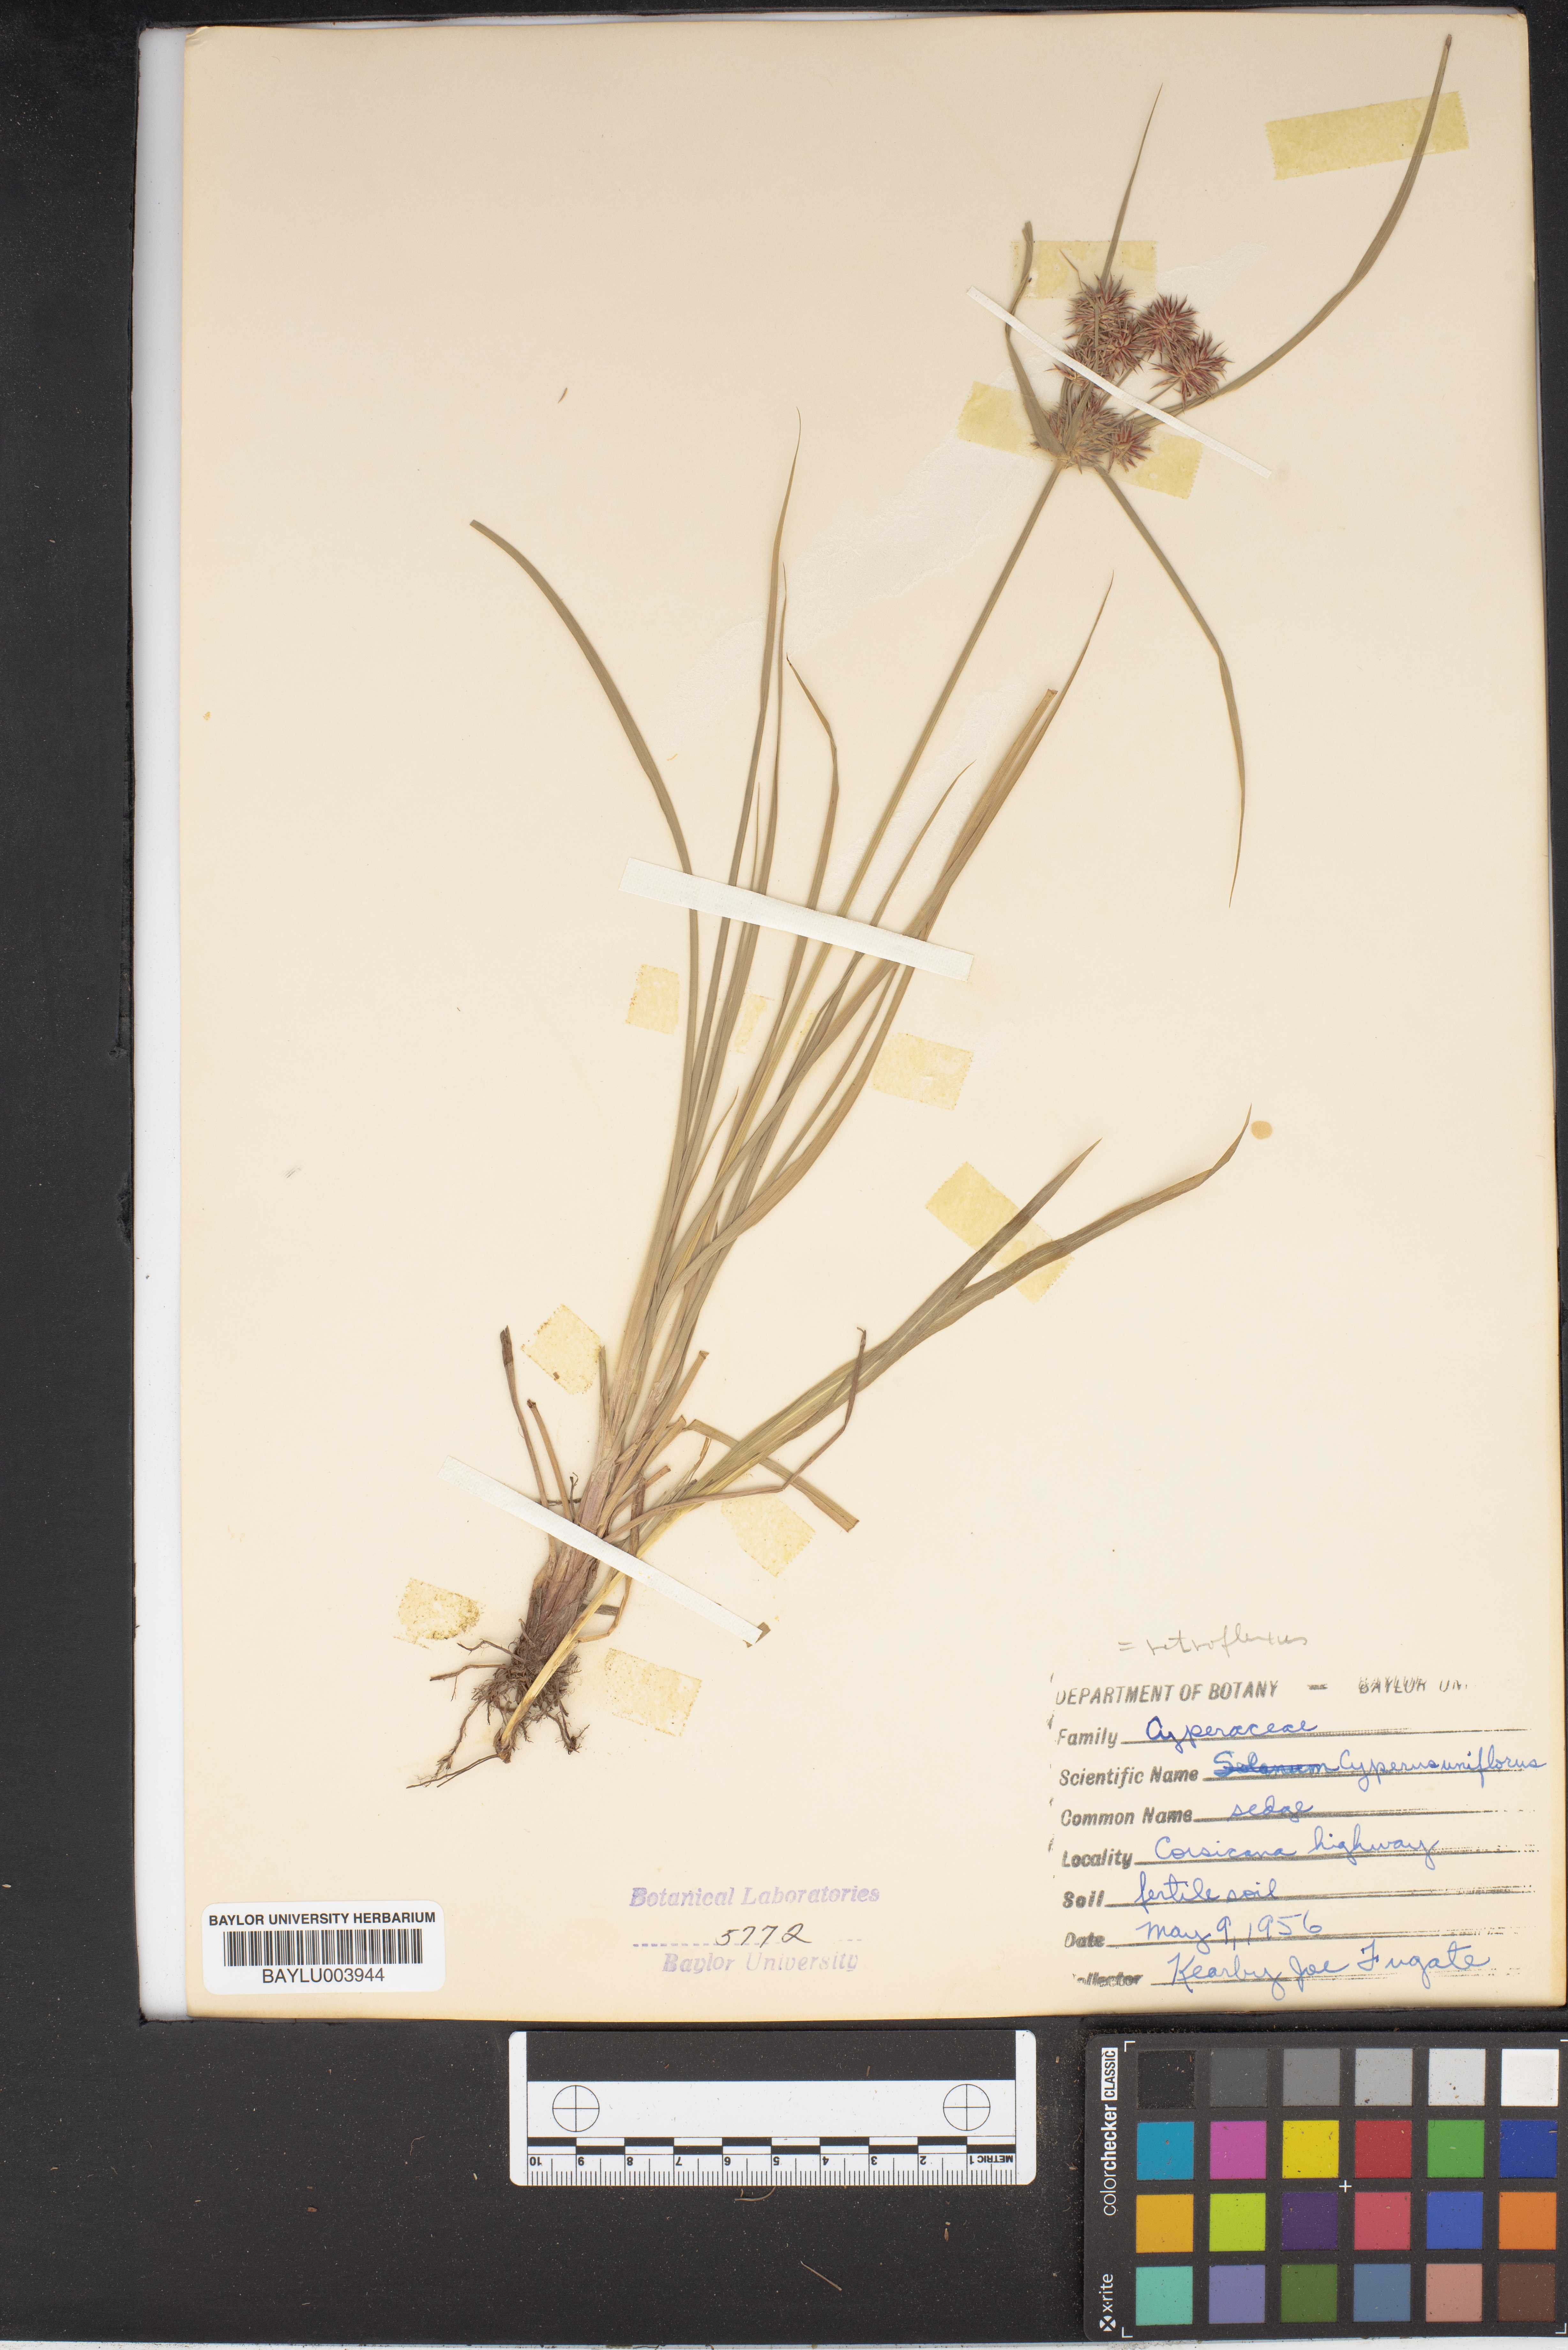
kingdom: Plantae
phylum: Tracheophyta
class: Liliopsida
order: Poales
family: Cyperaceae
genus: Cyperus
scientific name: Cyperus retroflexus
